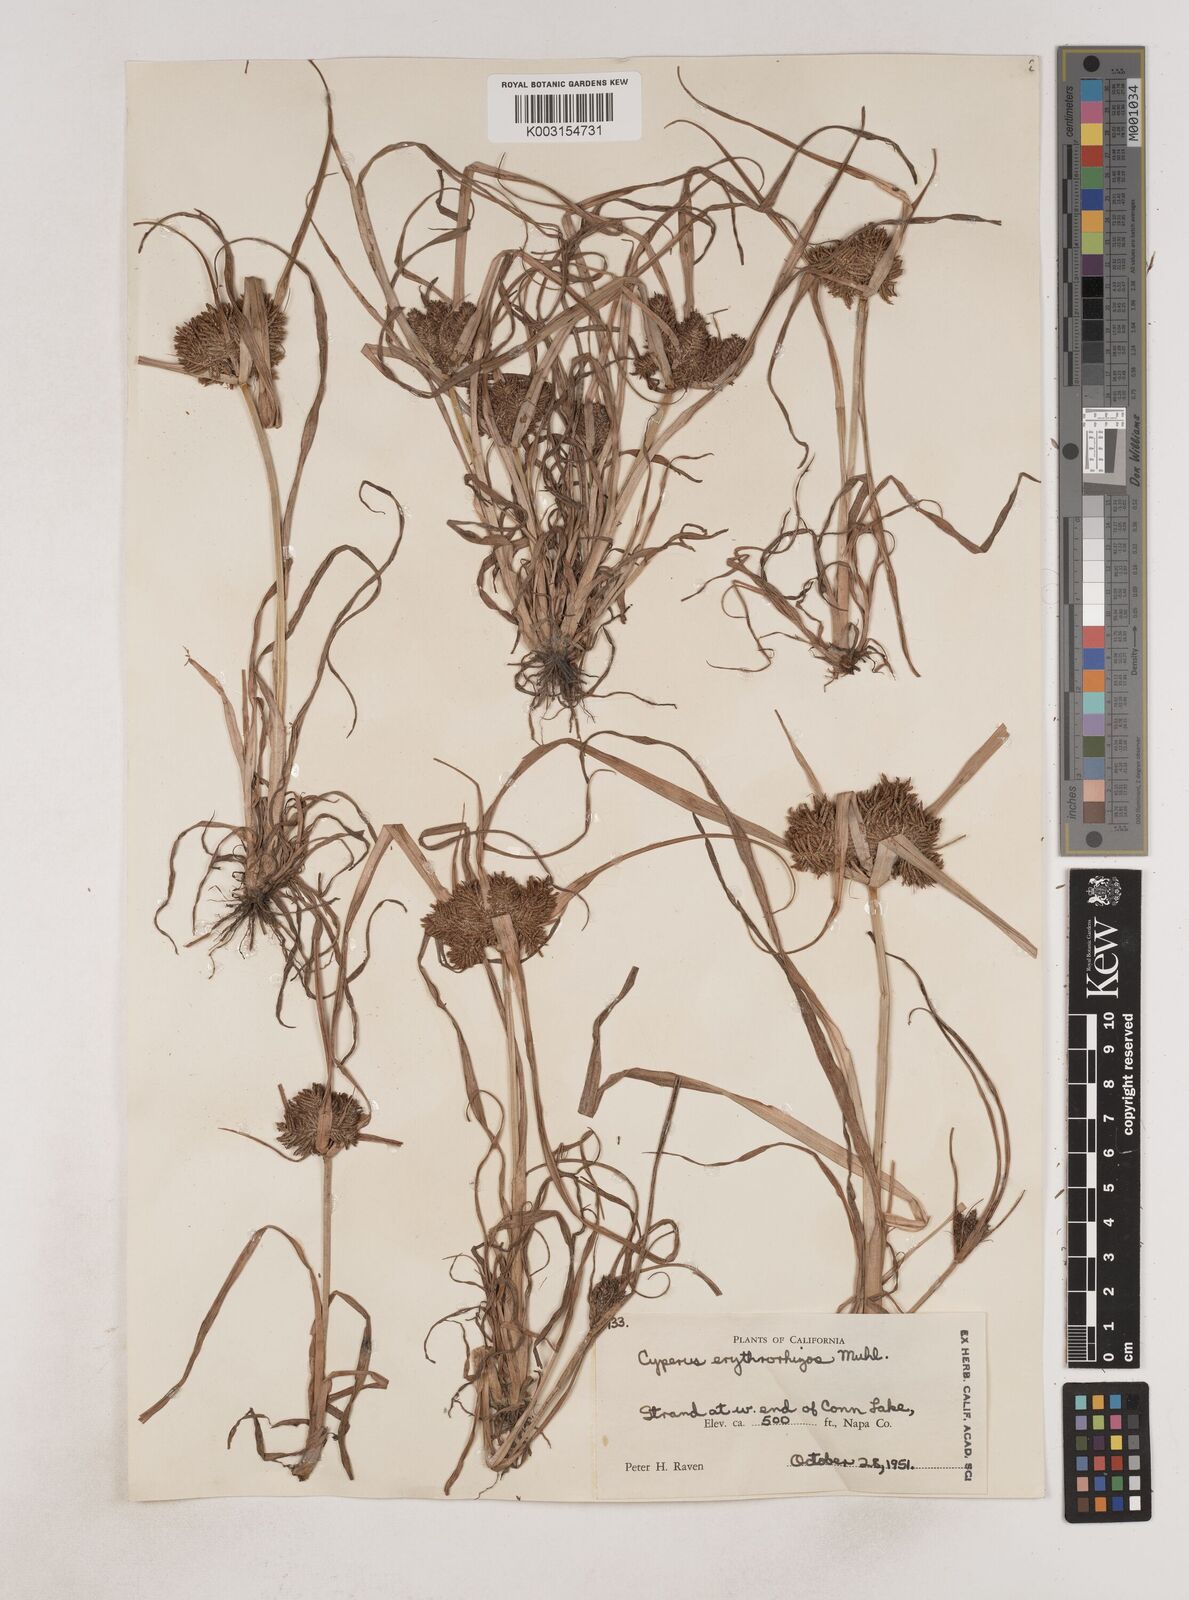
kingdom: Plantae
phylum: Tracheophyta
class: Liliopsida
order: Poales
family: Cyperaceae
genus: Cyperus
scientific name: Cyperus erythrorhizos
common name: Red-root flat sedge
